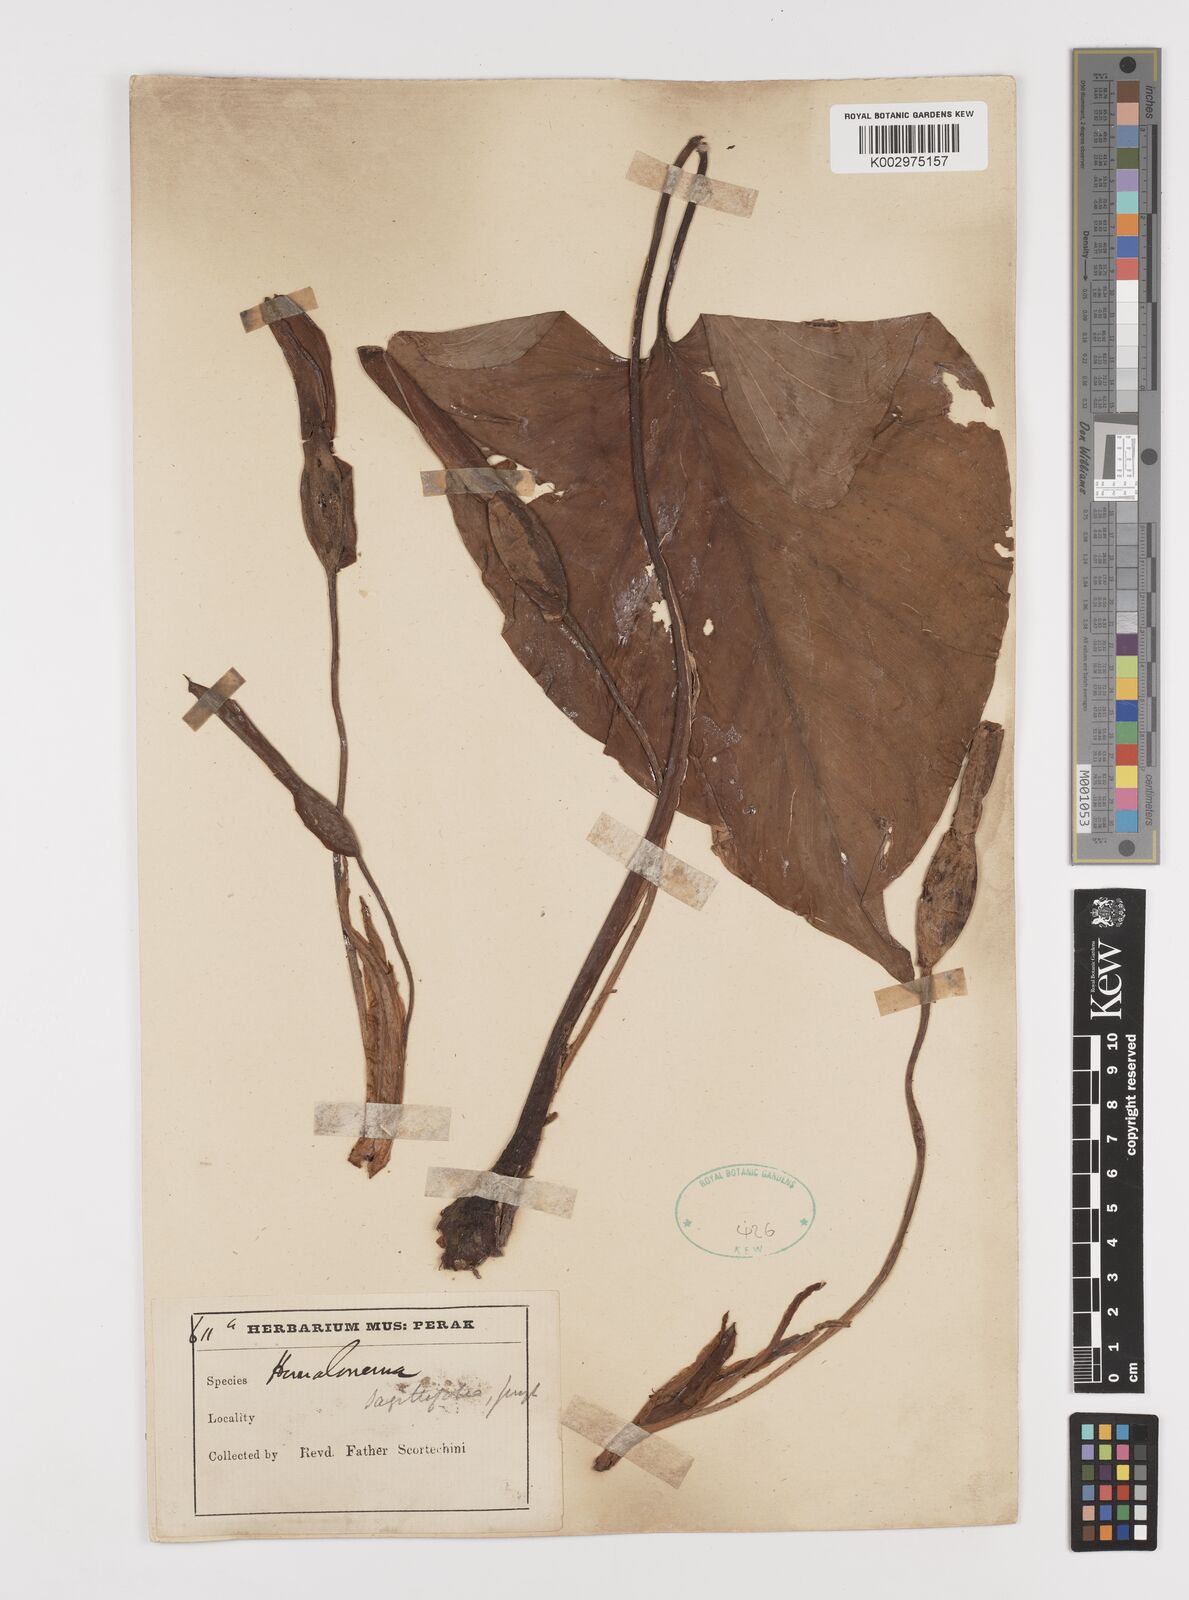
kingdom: Plantae
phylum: Tracheophyta
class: Liliopsida
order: Alismatales
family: Araceae
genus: Homalomena
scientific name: Homalomena rostrata
